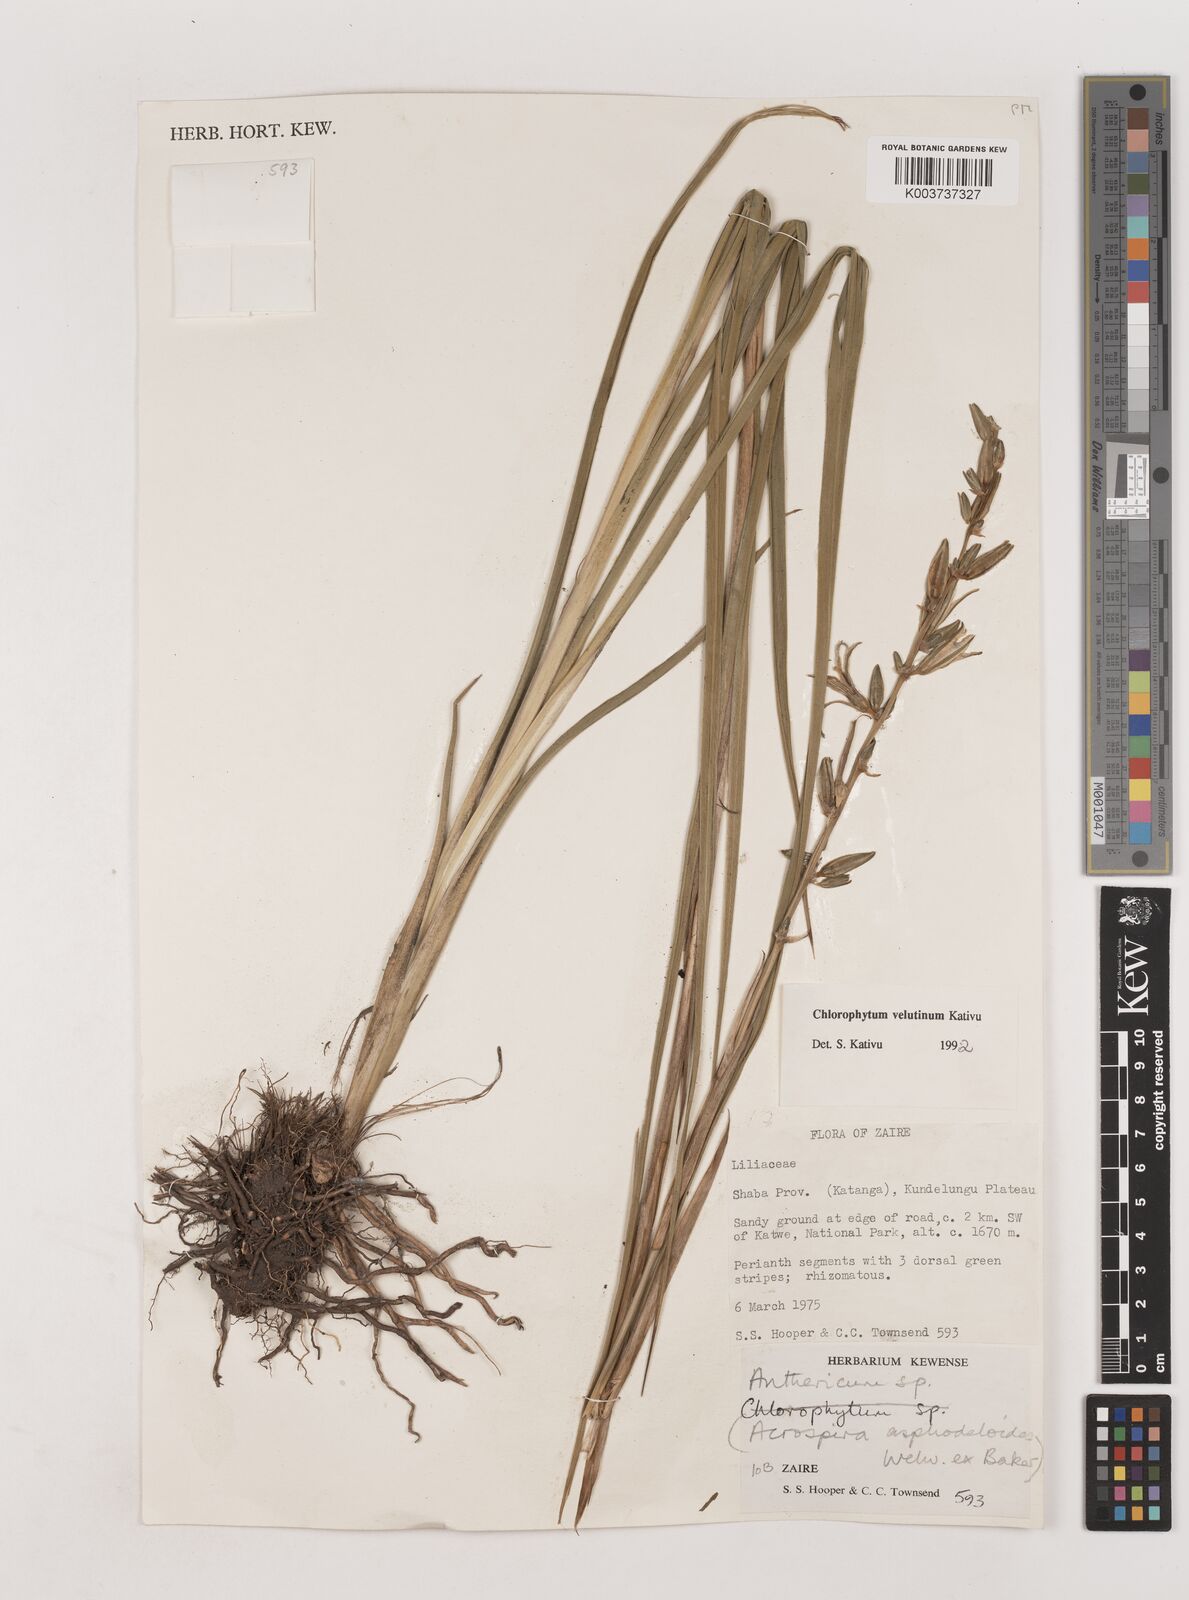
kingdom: Plantae
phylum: Tracheophyta
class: Liliopsida
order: Asparagales
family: Asparagaceae
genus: Chlorophytum
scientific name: Chlorophytum velutinum
